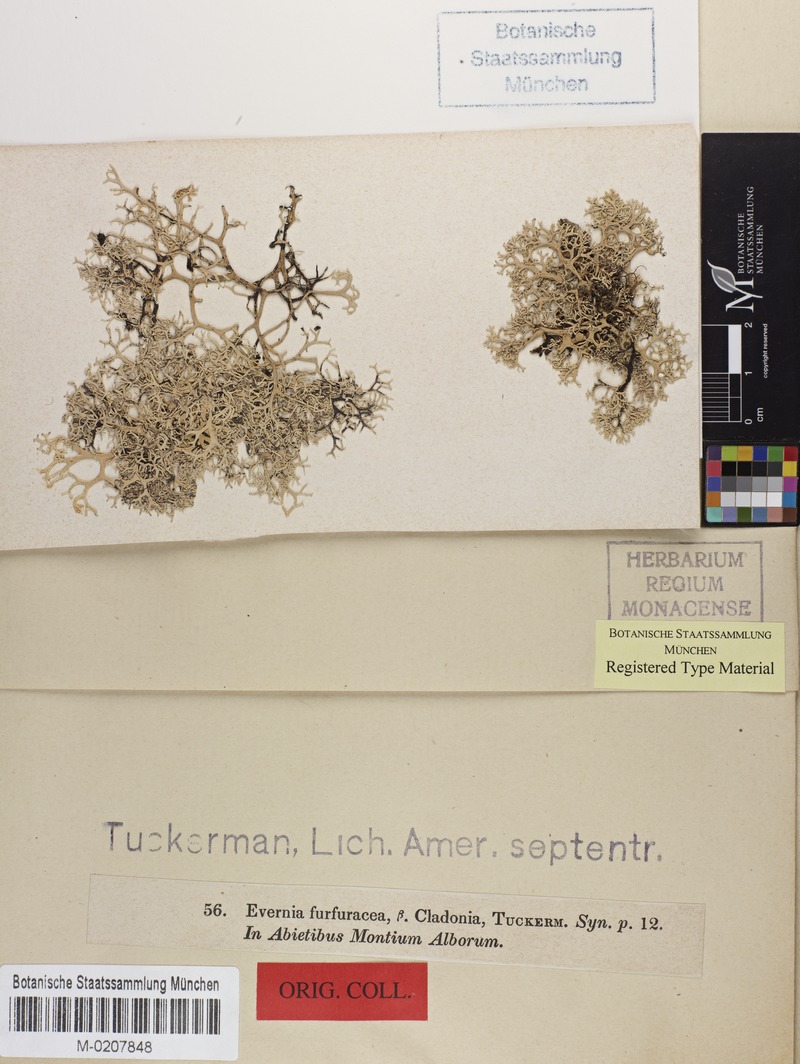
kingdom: Fungi
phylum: Ascomycota
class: Lecanoromycetes
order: Lecanorales
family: Parmeliaceae
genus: Pseudevernia
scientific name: Pseudevernia cladonia
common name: Light-and-dark lichen
